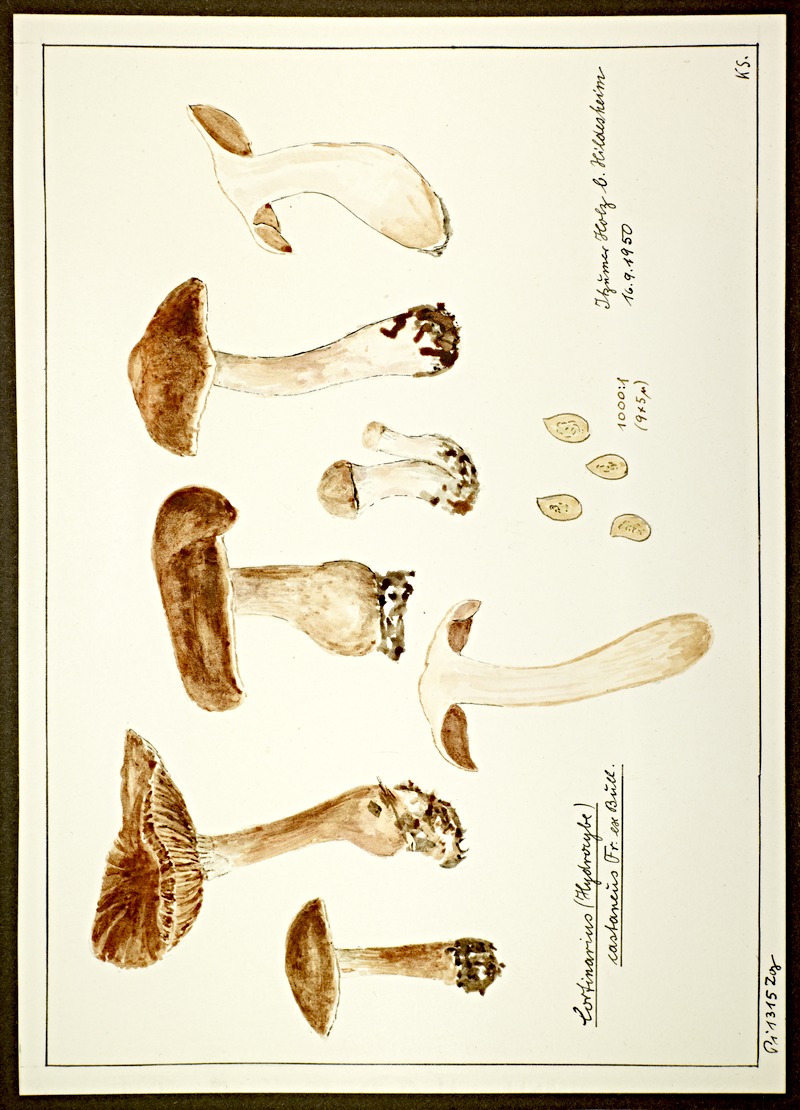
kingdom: Fungi
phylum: Basidiomycota
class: Agaricomycetes
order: Agaricales
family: Cortinariaceae
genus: Cortinarius
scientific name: Cortinarius castaneus
